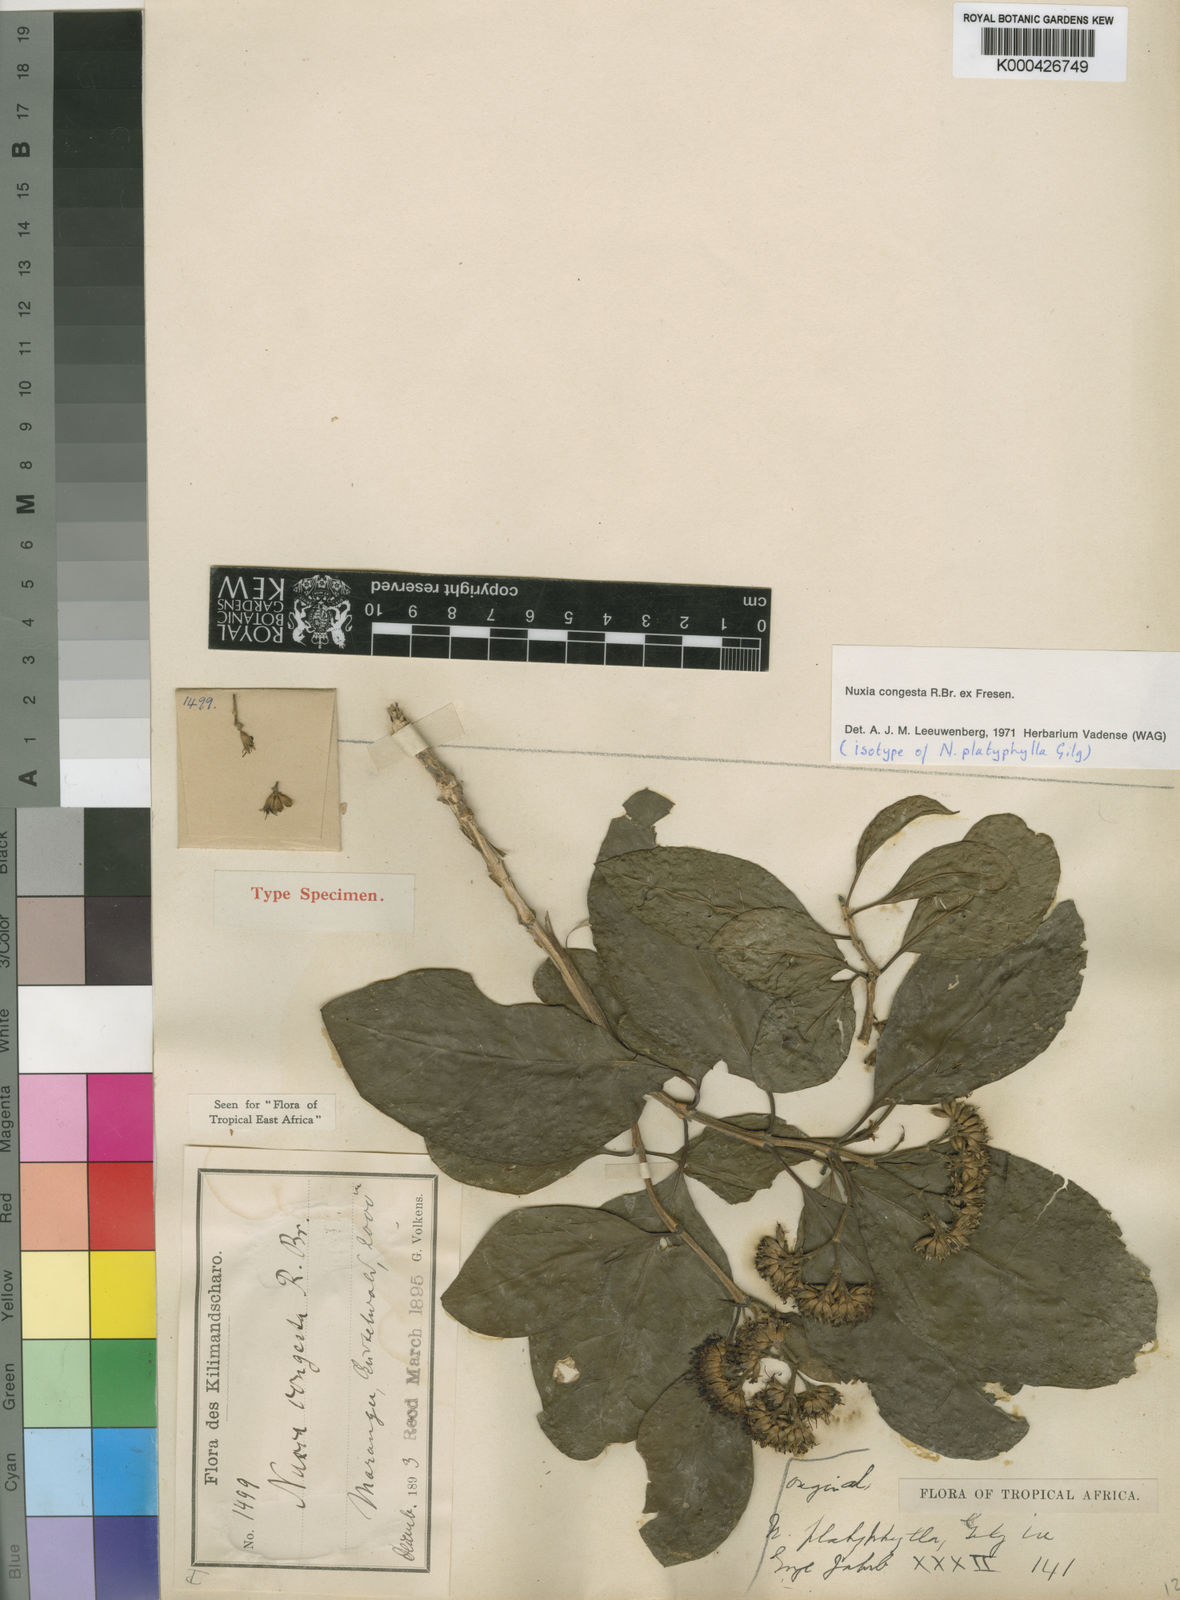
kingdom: Plantae
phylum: Tracheophyta
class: Magnoliopsida
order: Lamiales
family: Stilbaceae
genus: Nuxia
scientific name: Nuxia congesta
